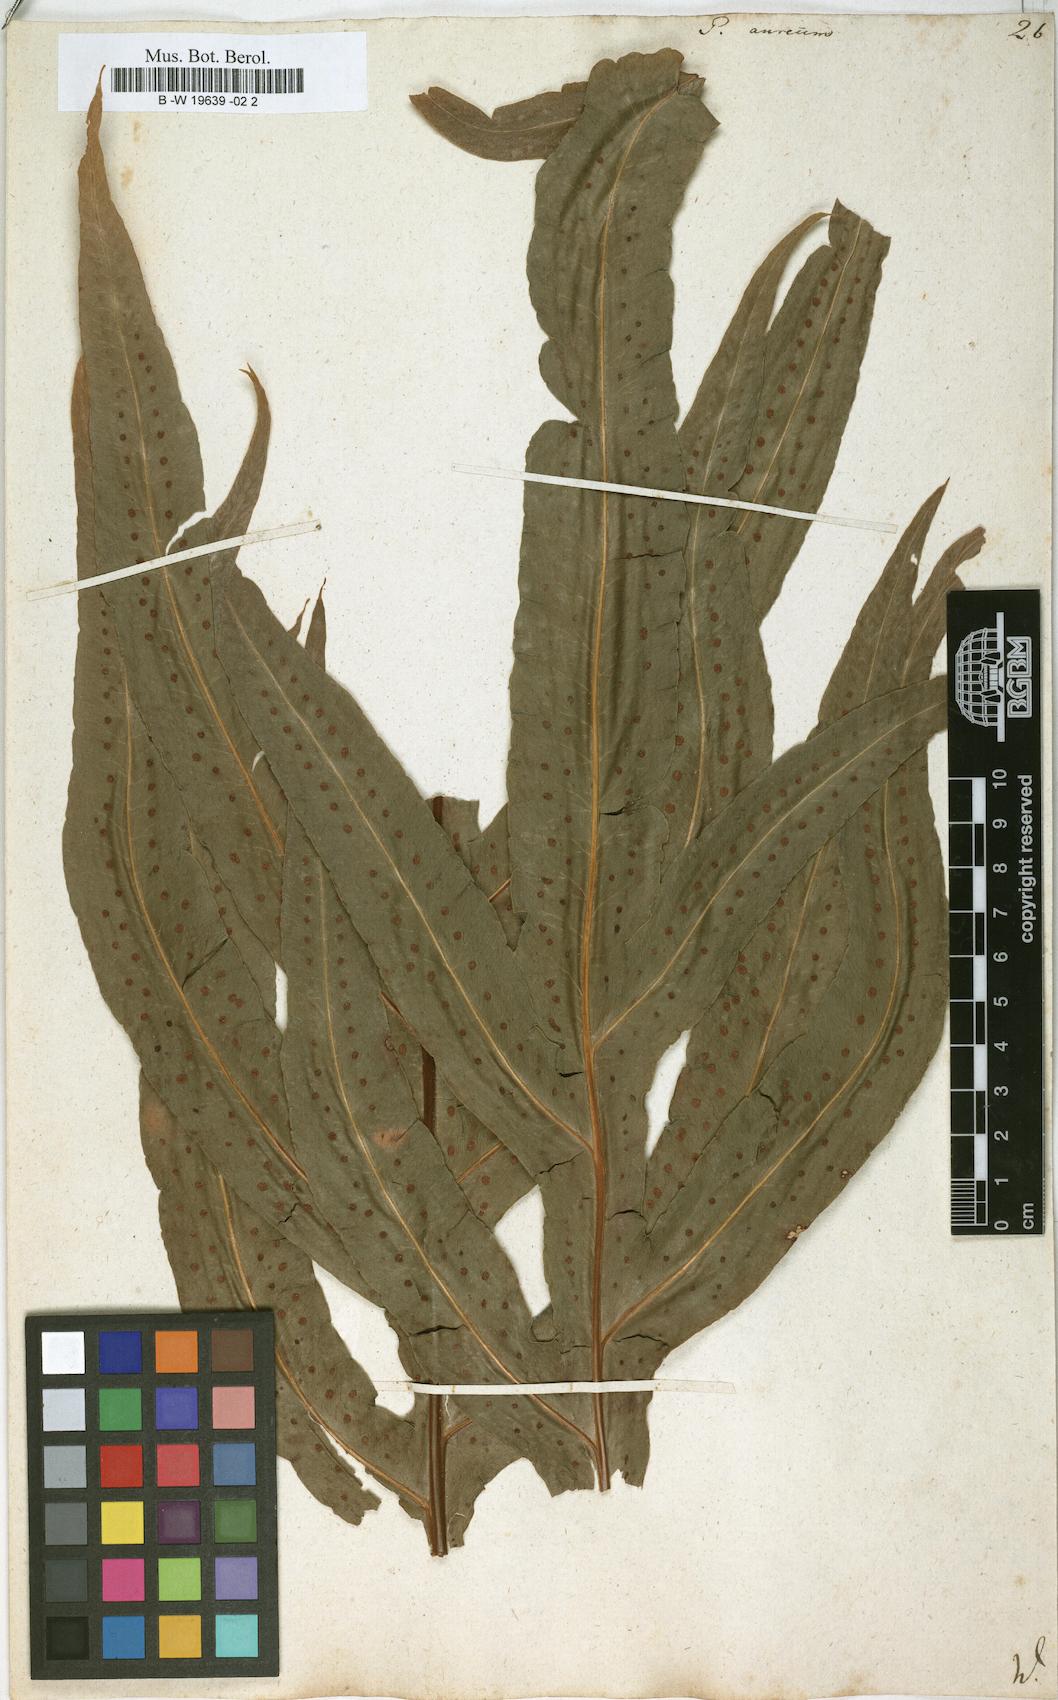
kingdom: Plantae
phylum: Tracheophyta
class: Polypodiopsida
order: Polypodiales
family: Polypodiaceae
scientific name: Polypodiaceae
